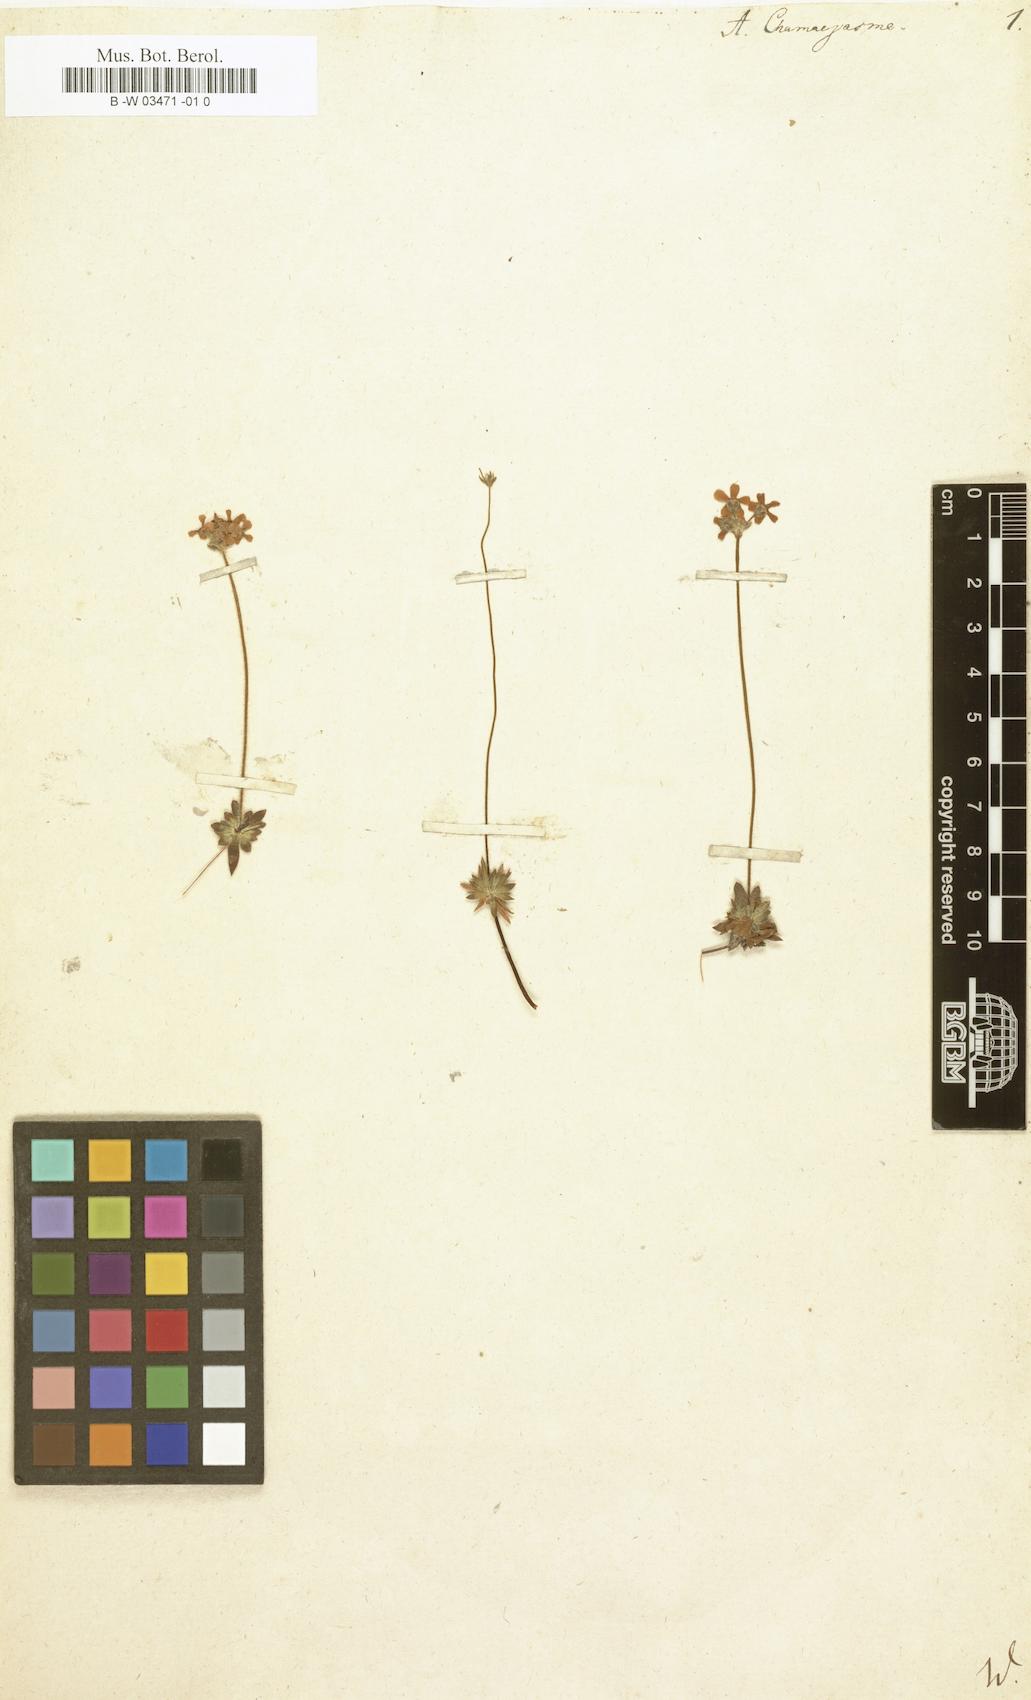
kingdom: Plantae
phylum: Tracheophyta
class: Magnoliopsida
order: Ericales
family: Primulaceae
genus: Androsace
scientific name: Androsace chamaejasme
